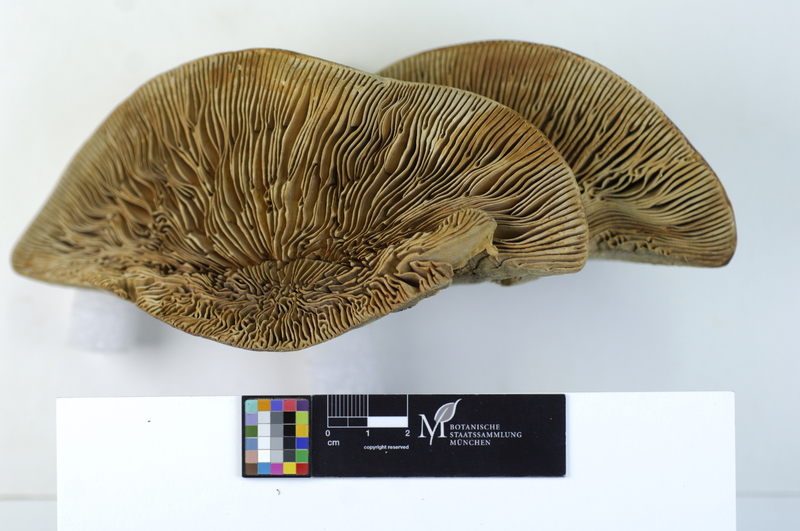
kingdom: Fungi
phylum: Basidiomycota
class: Agaricomycetes
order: Polyporales
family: Polyporaceae
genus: Cellulariella
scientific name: Cellulariella warnieri
